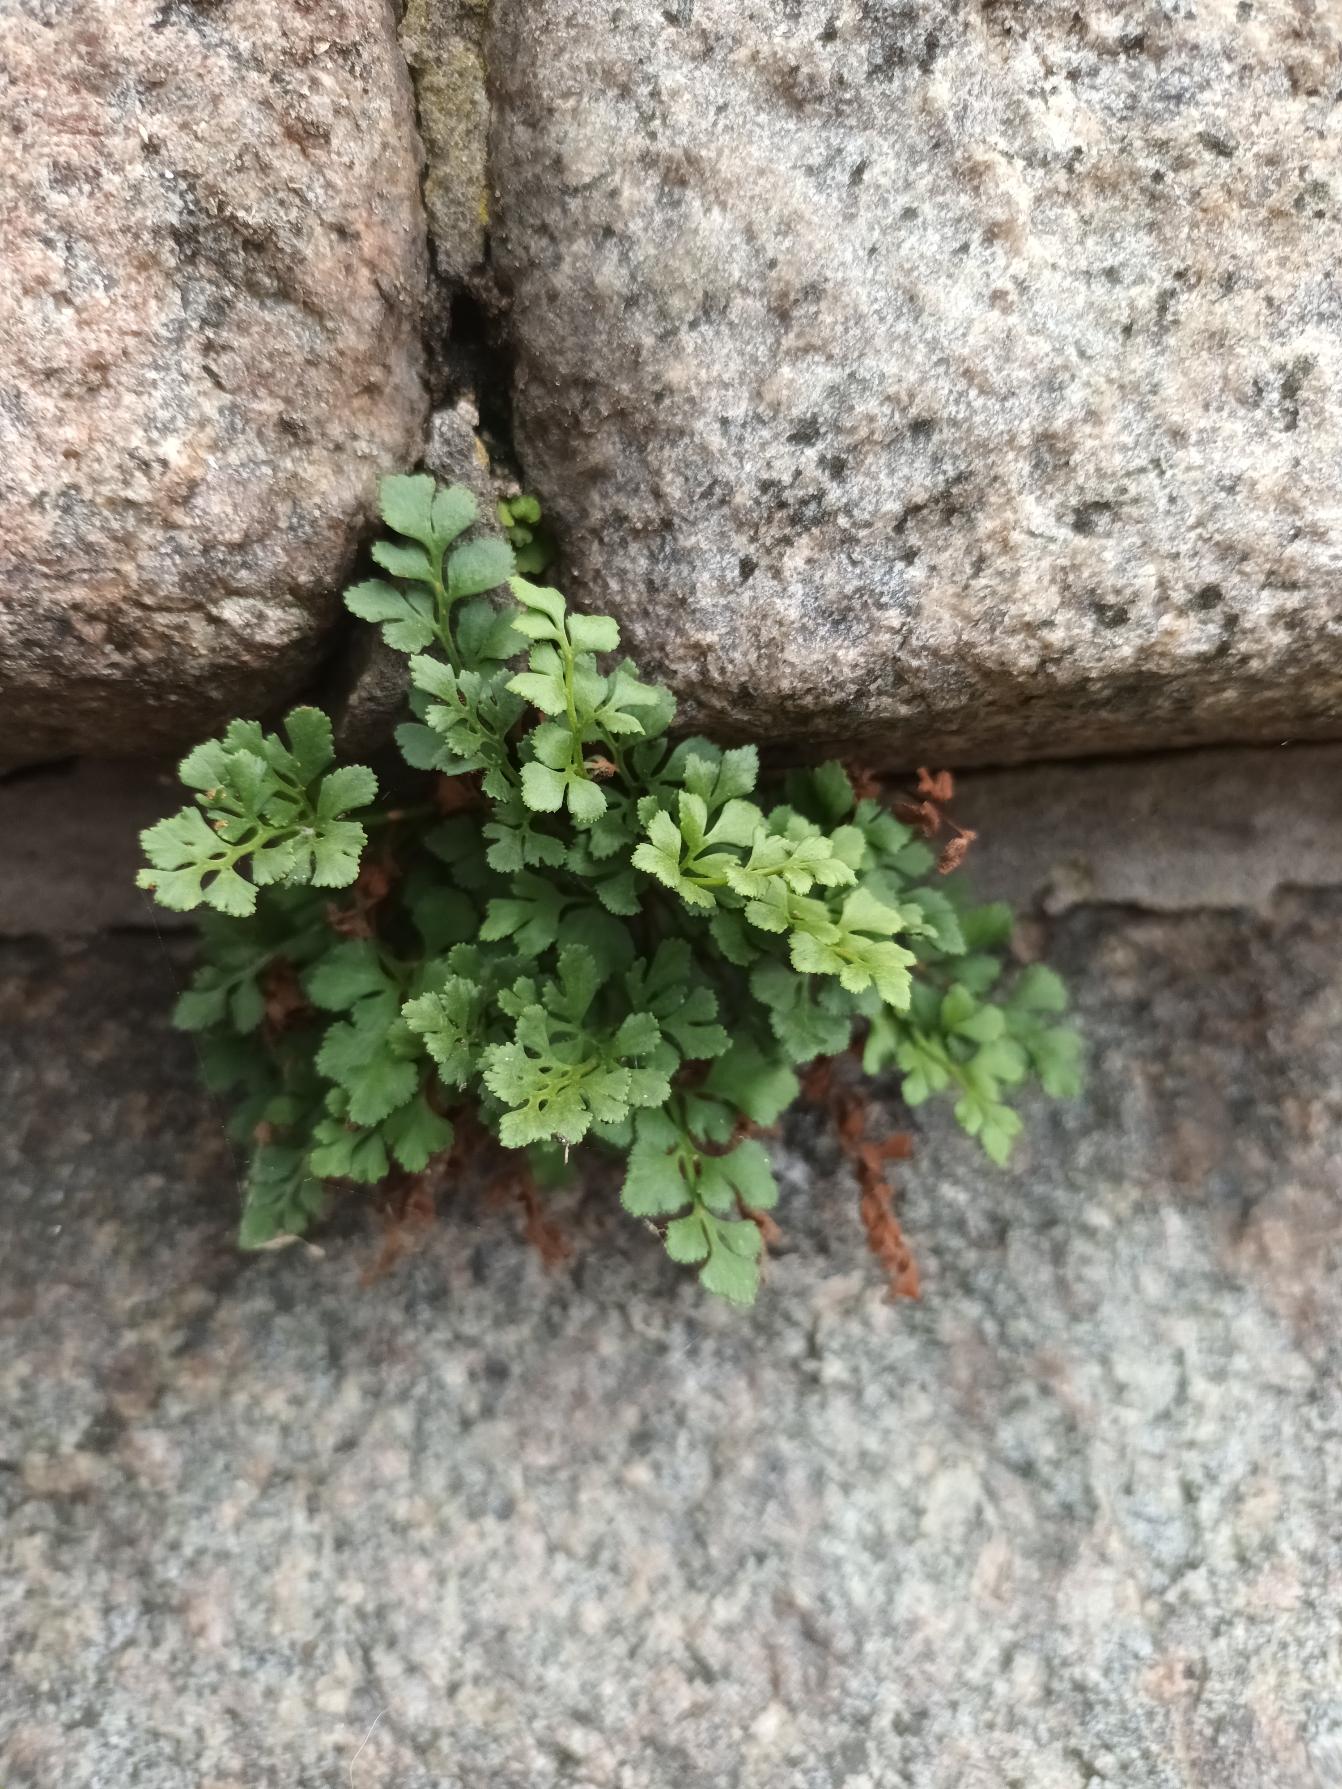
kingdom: Plantae
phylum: Tracheophyta
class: Polypodiopsida
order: Polypodiales
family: Aspleniaceae
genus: Asplenium
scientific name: Asplenium ruta-muraria
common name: Murrude
